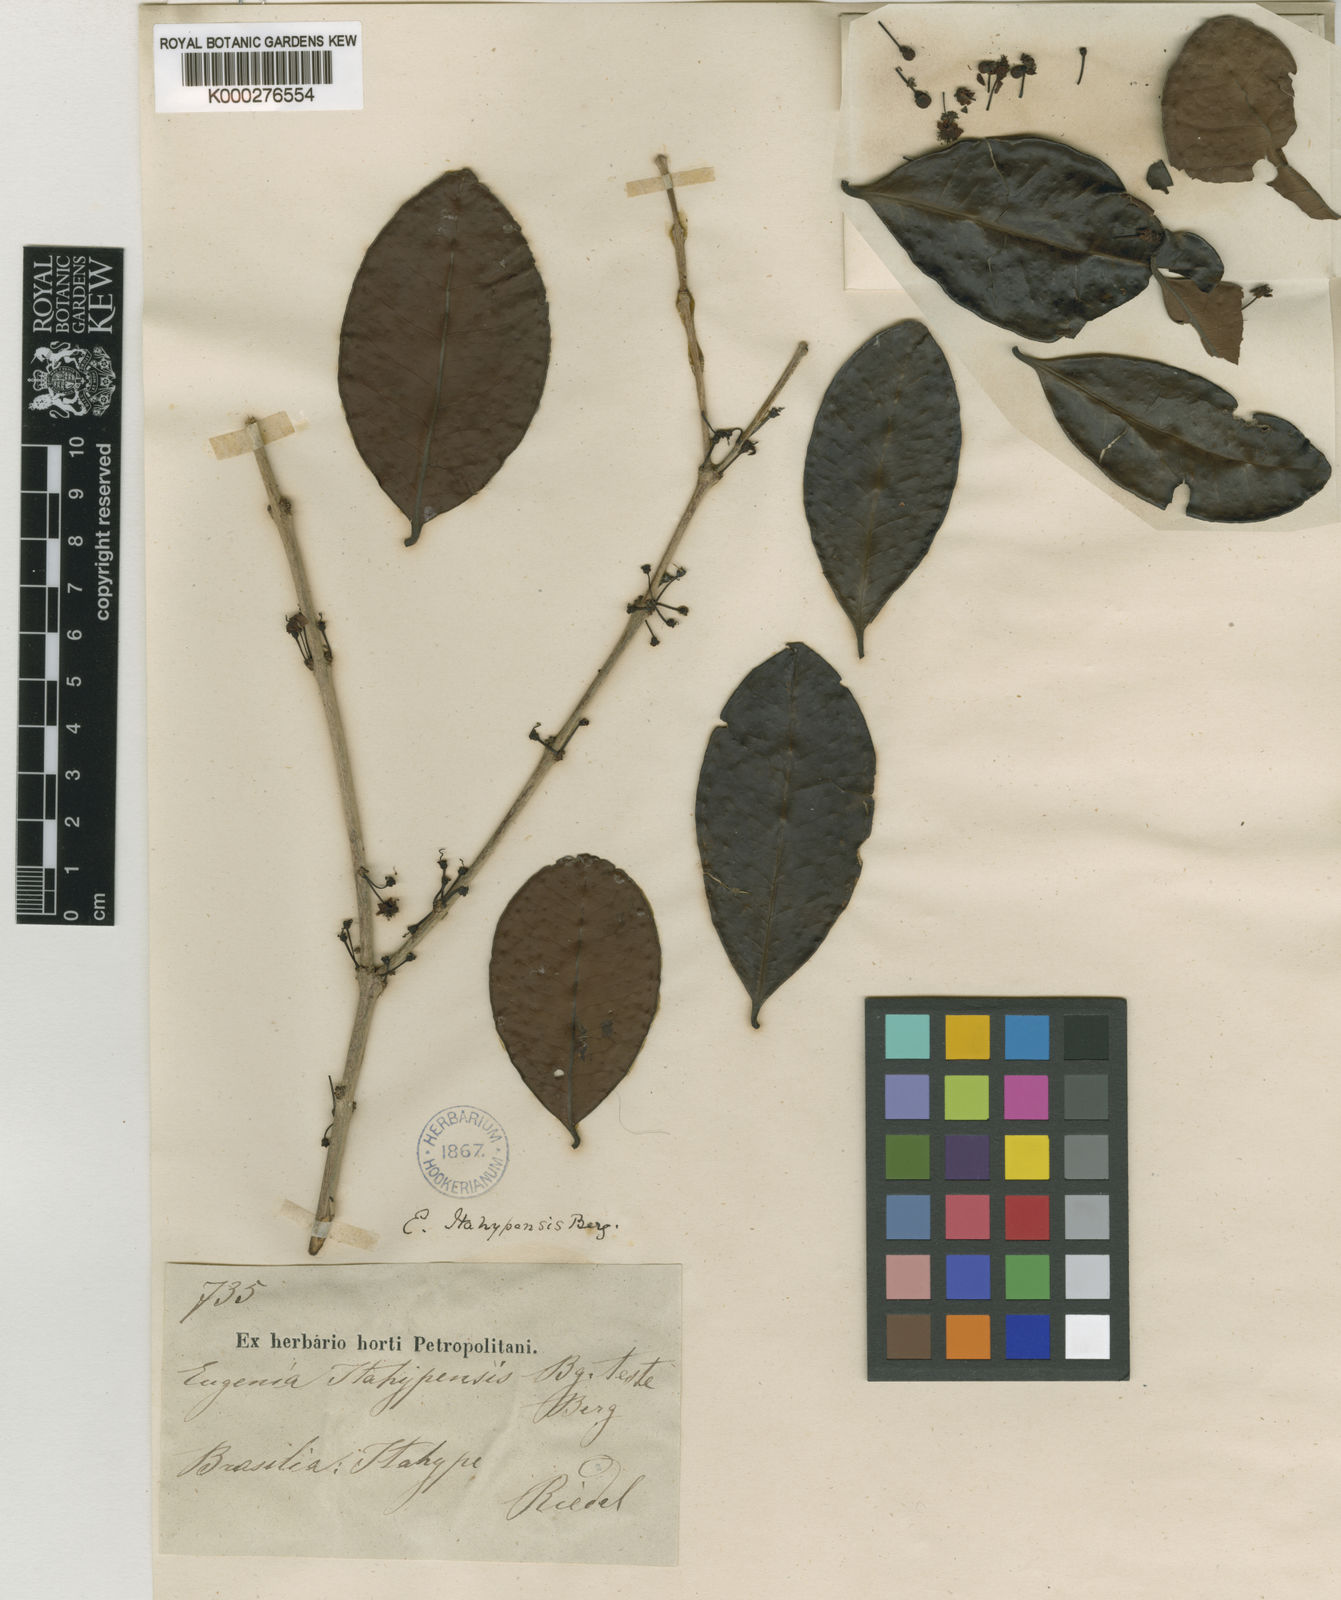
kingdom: Plantae
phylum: Tracheophyta
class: Magnoliopsida
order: Myrtales
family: Myrtaceae
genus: Eugenia
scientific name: Eugenia itahypensis
